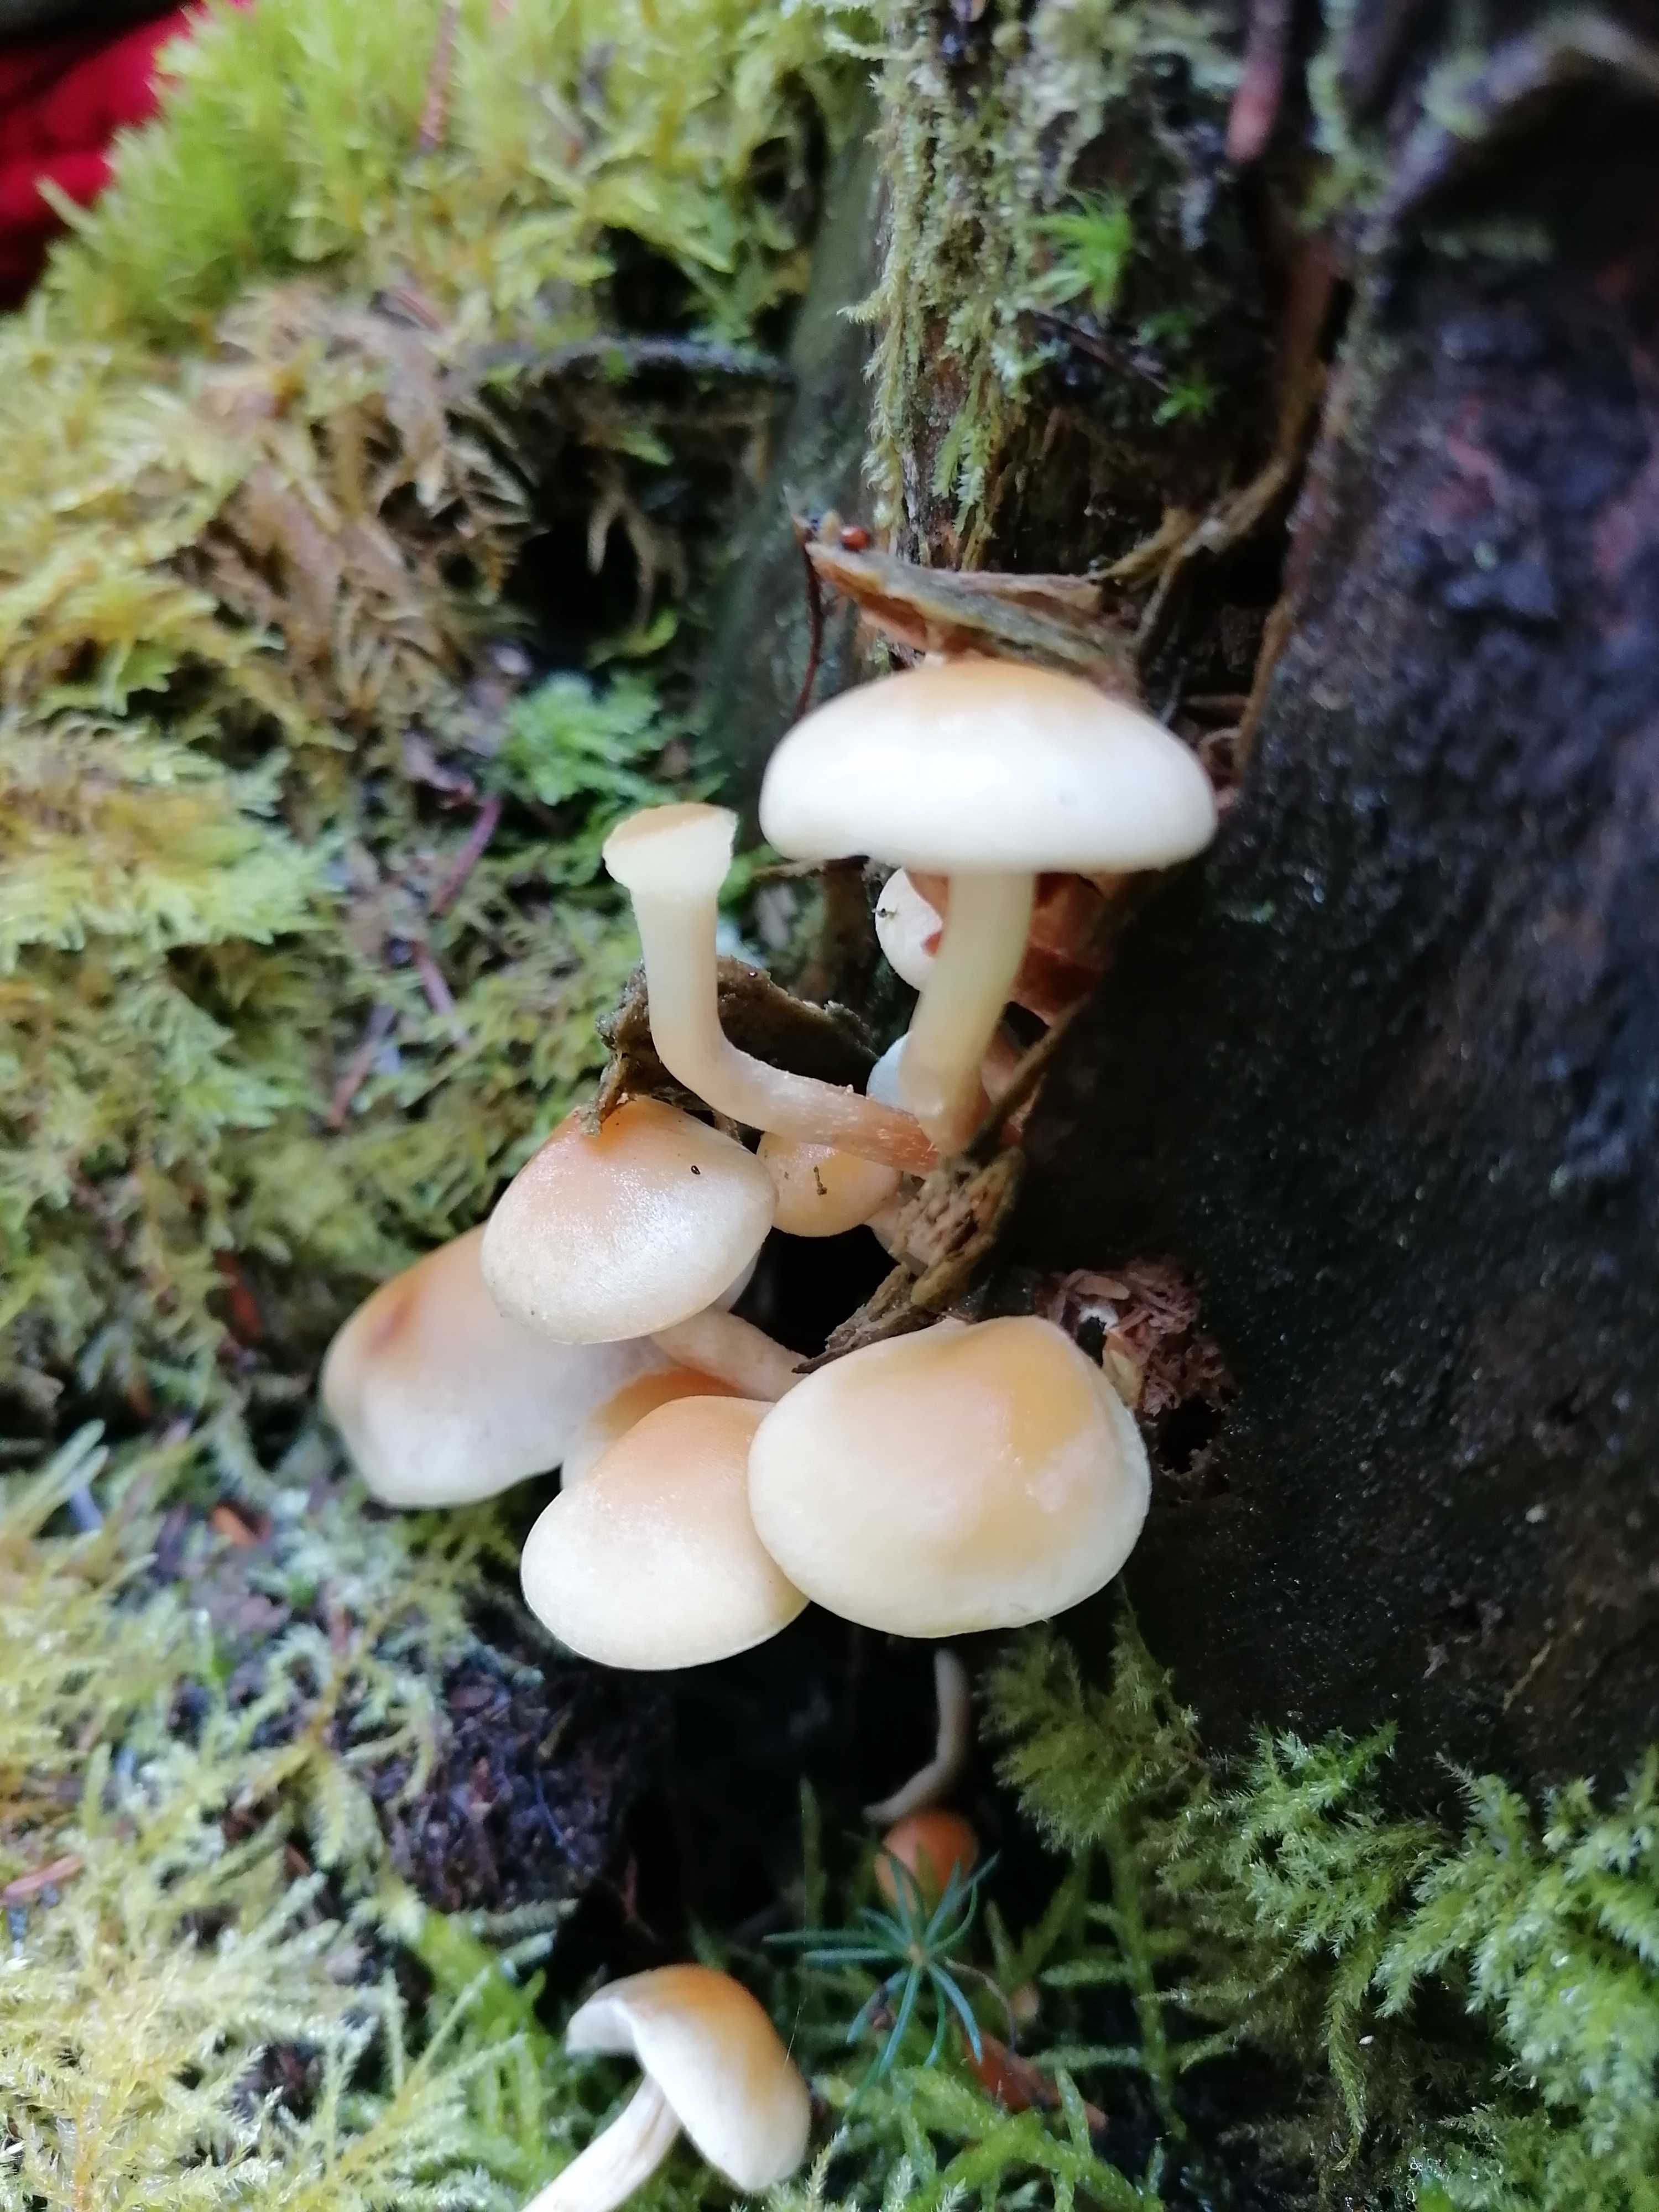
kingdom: Fungi
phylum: Basidiomycota
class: Agaricomycetes
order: Agaricales
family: Strophariaceae
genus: Hypholoma
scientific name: Hypholoma capnoides
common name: gran-svovlhat
